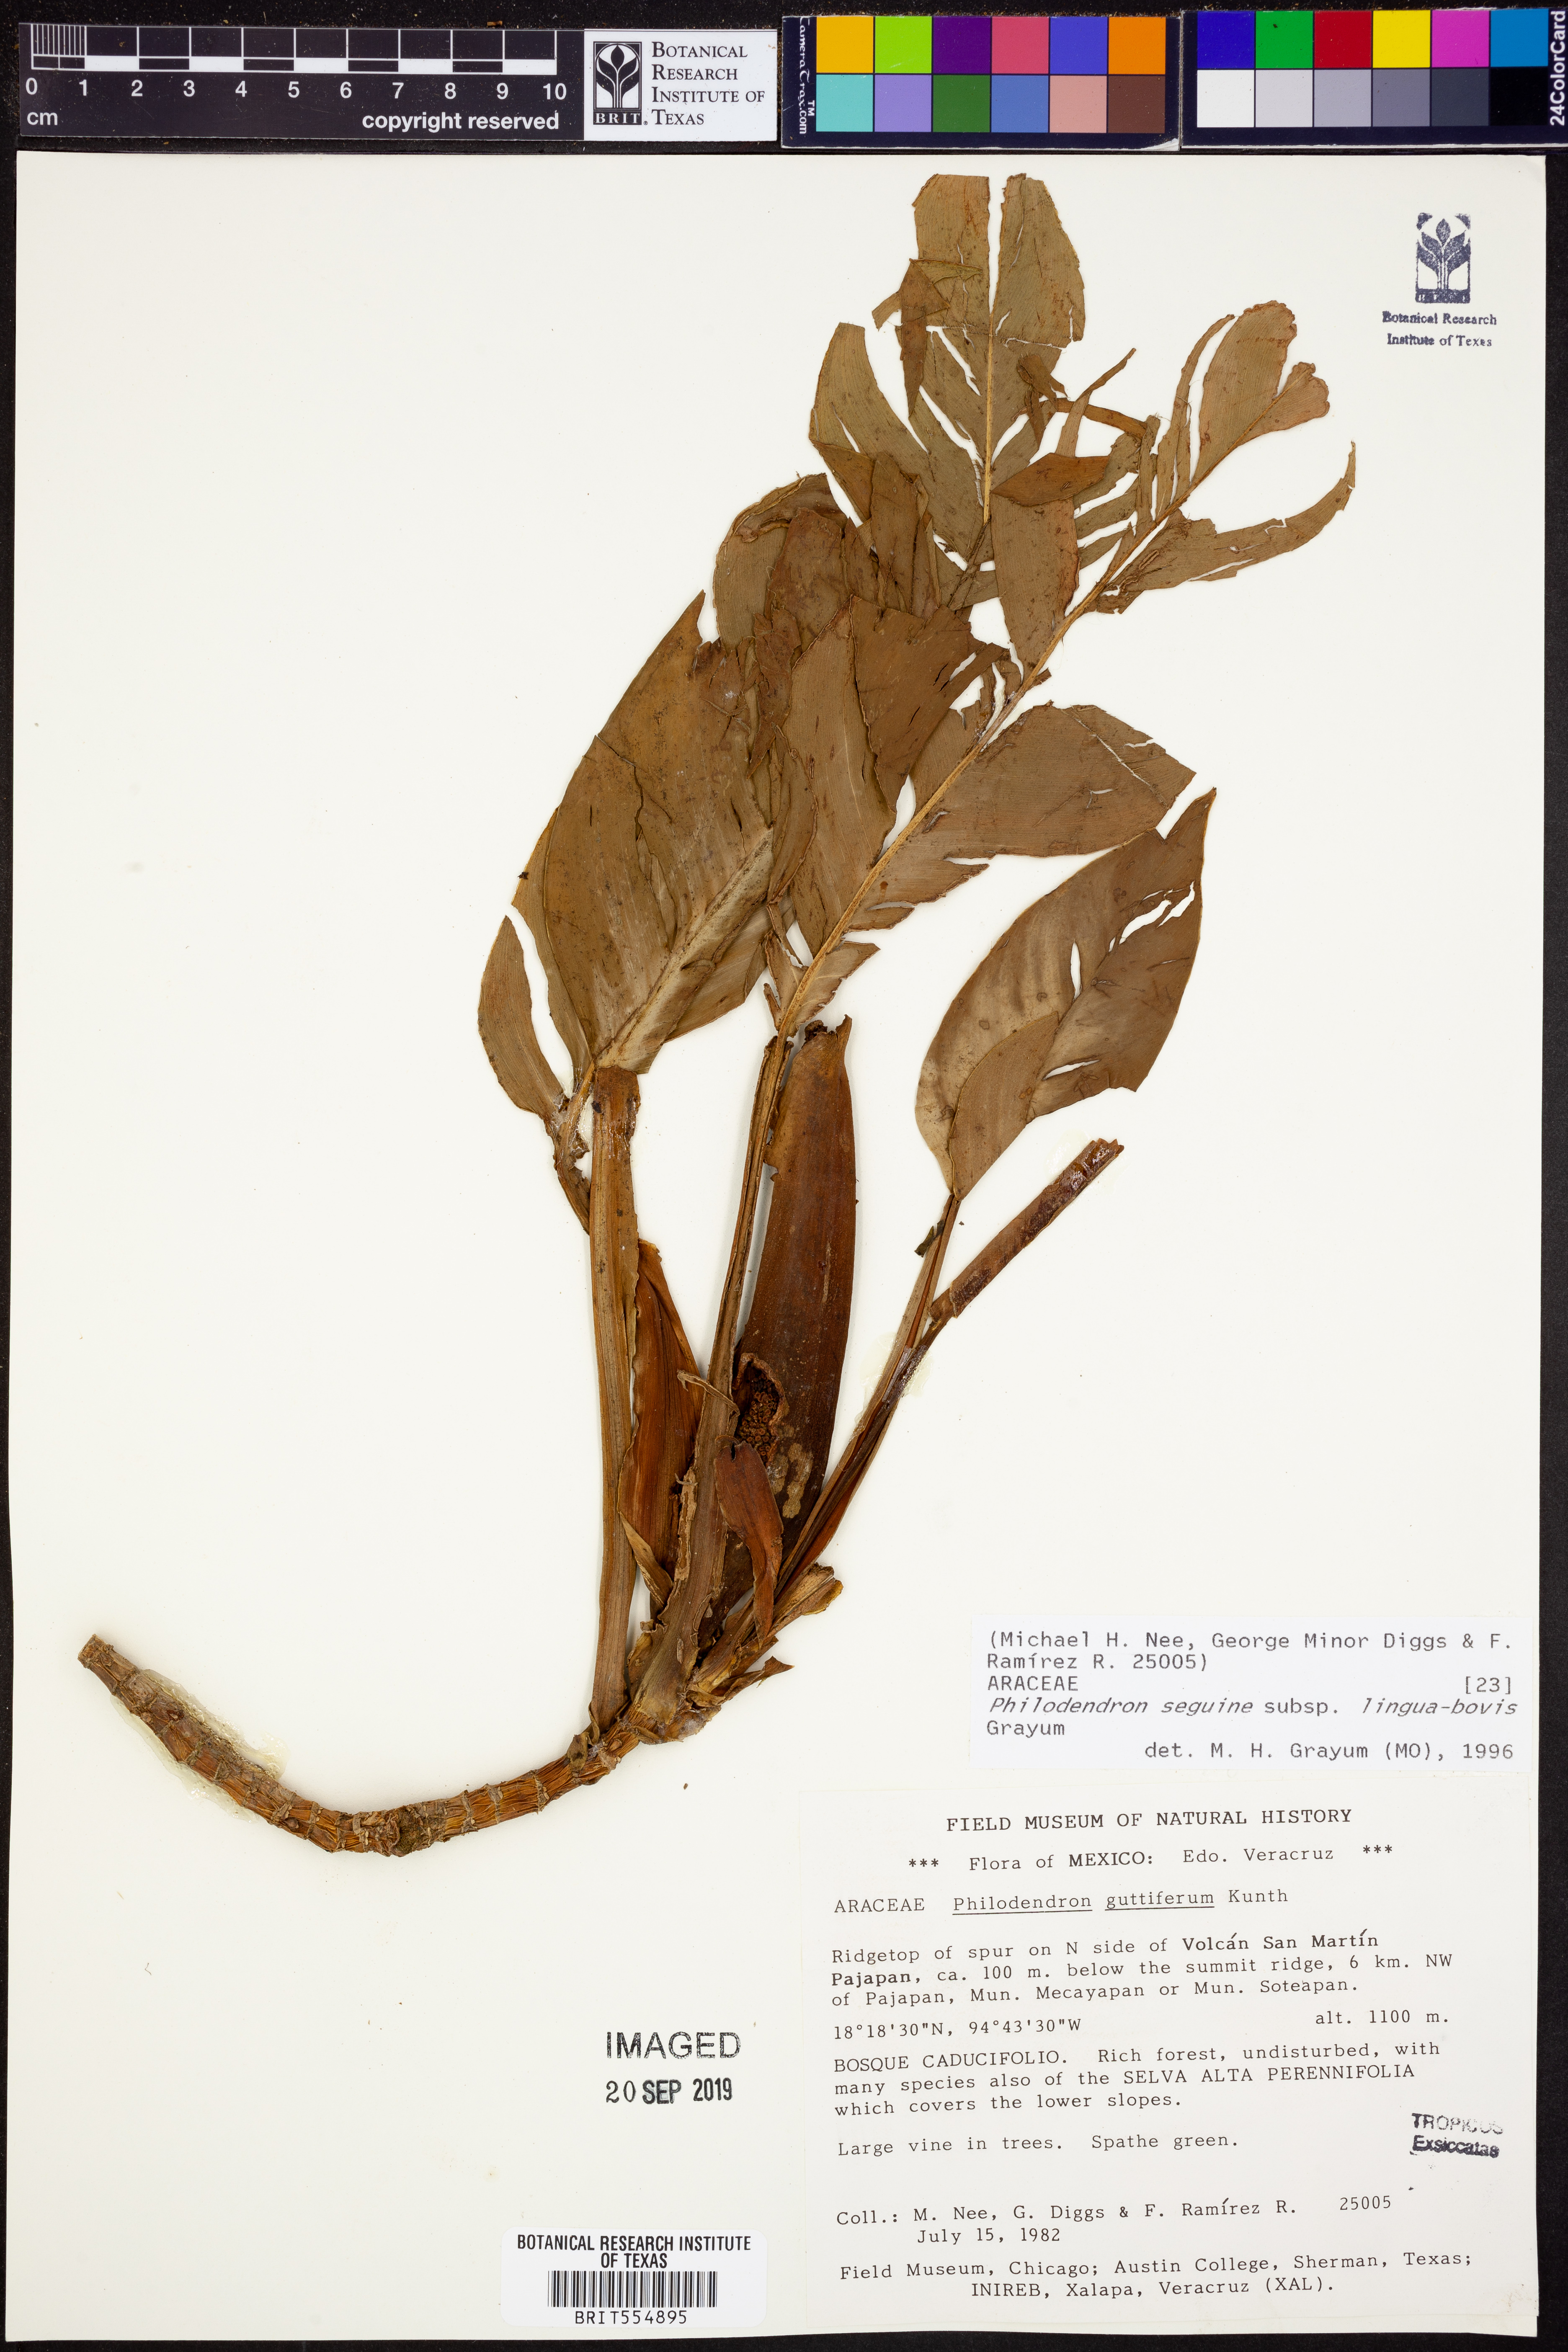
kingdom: Plantae
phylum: Tracheophyta
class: Liliopsida
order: Alismatales
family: Araceae
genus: Philodendron
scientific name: Philodendron seguine
